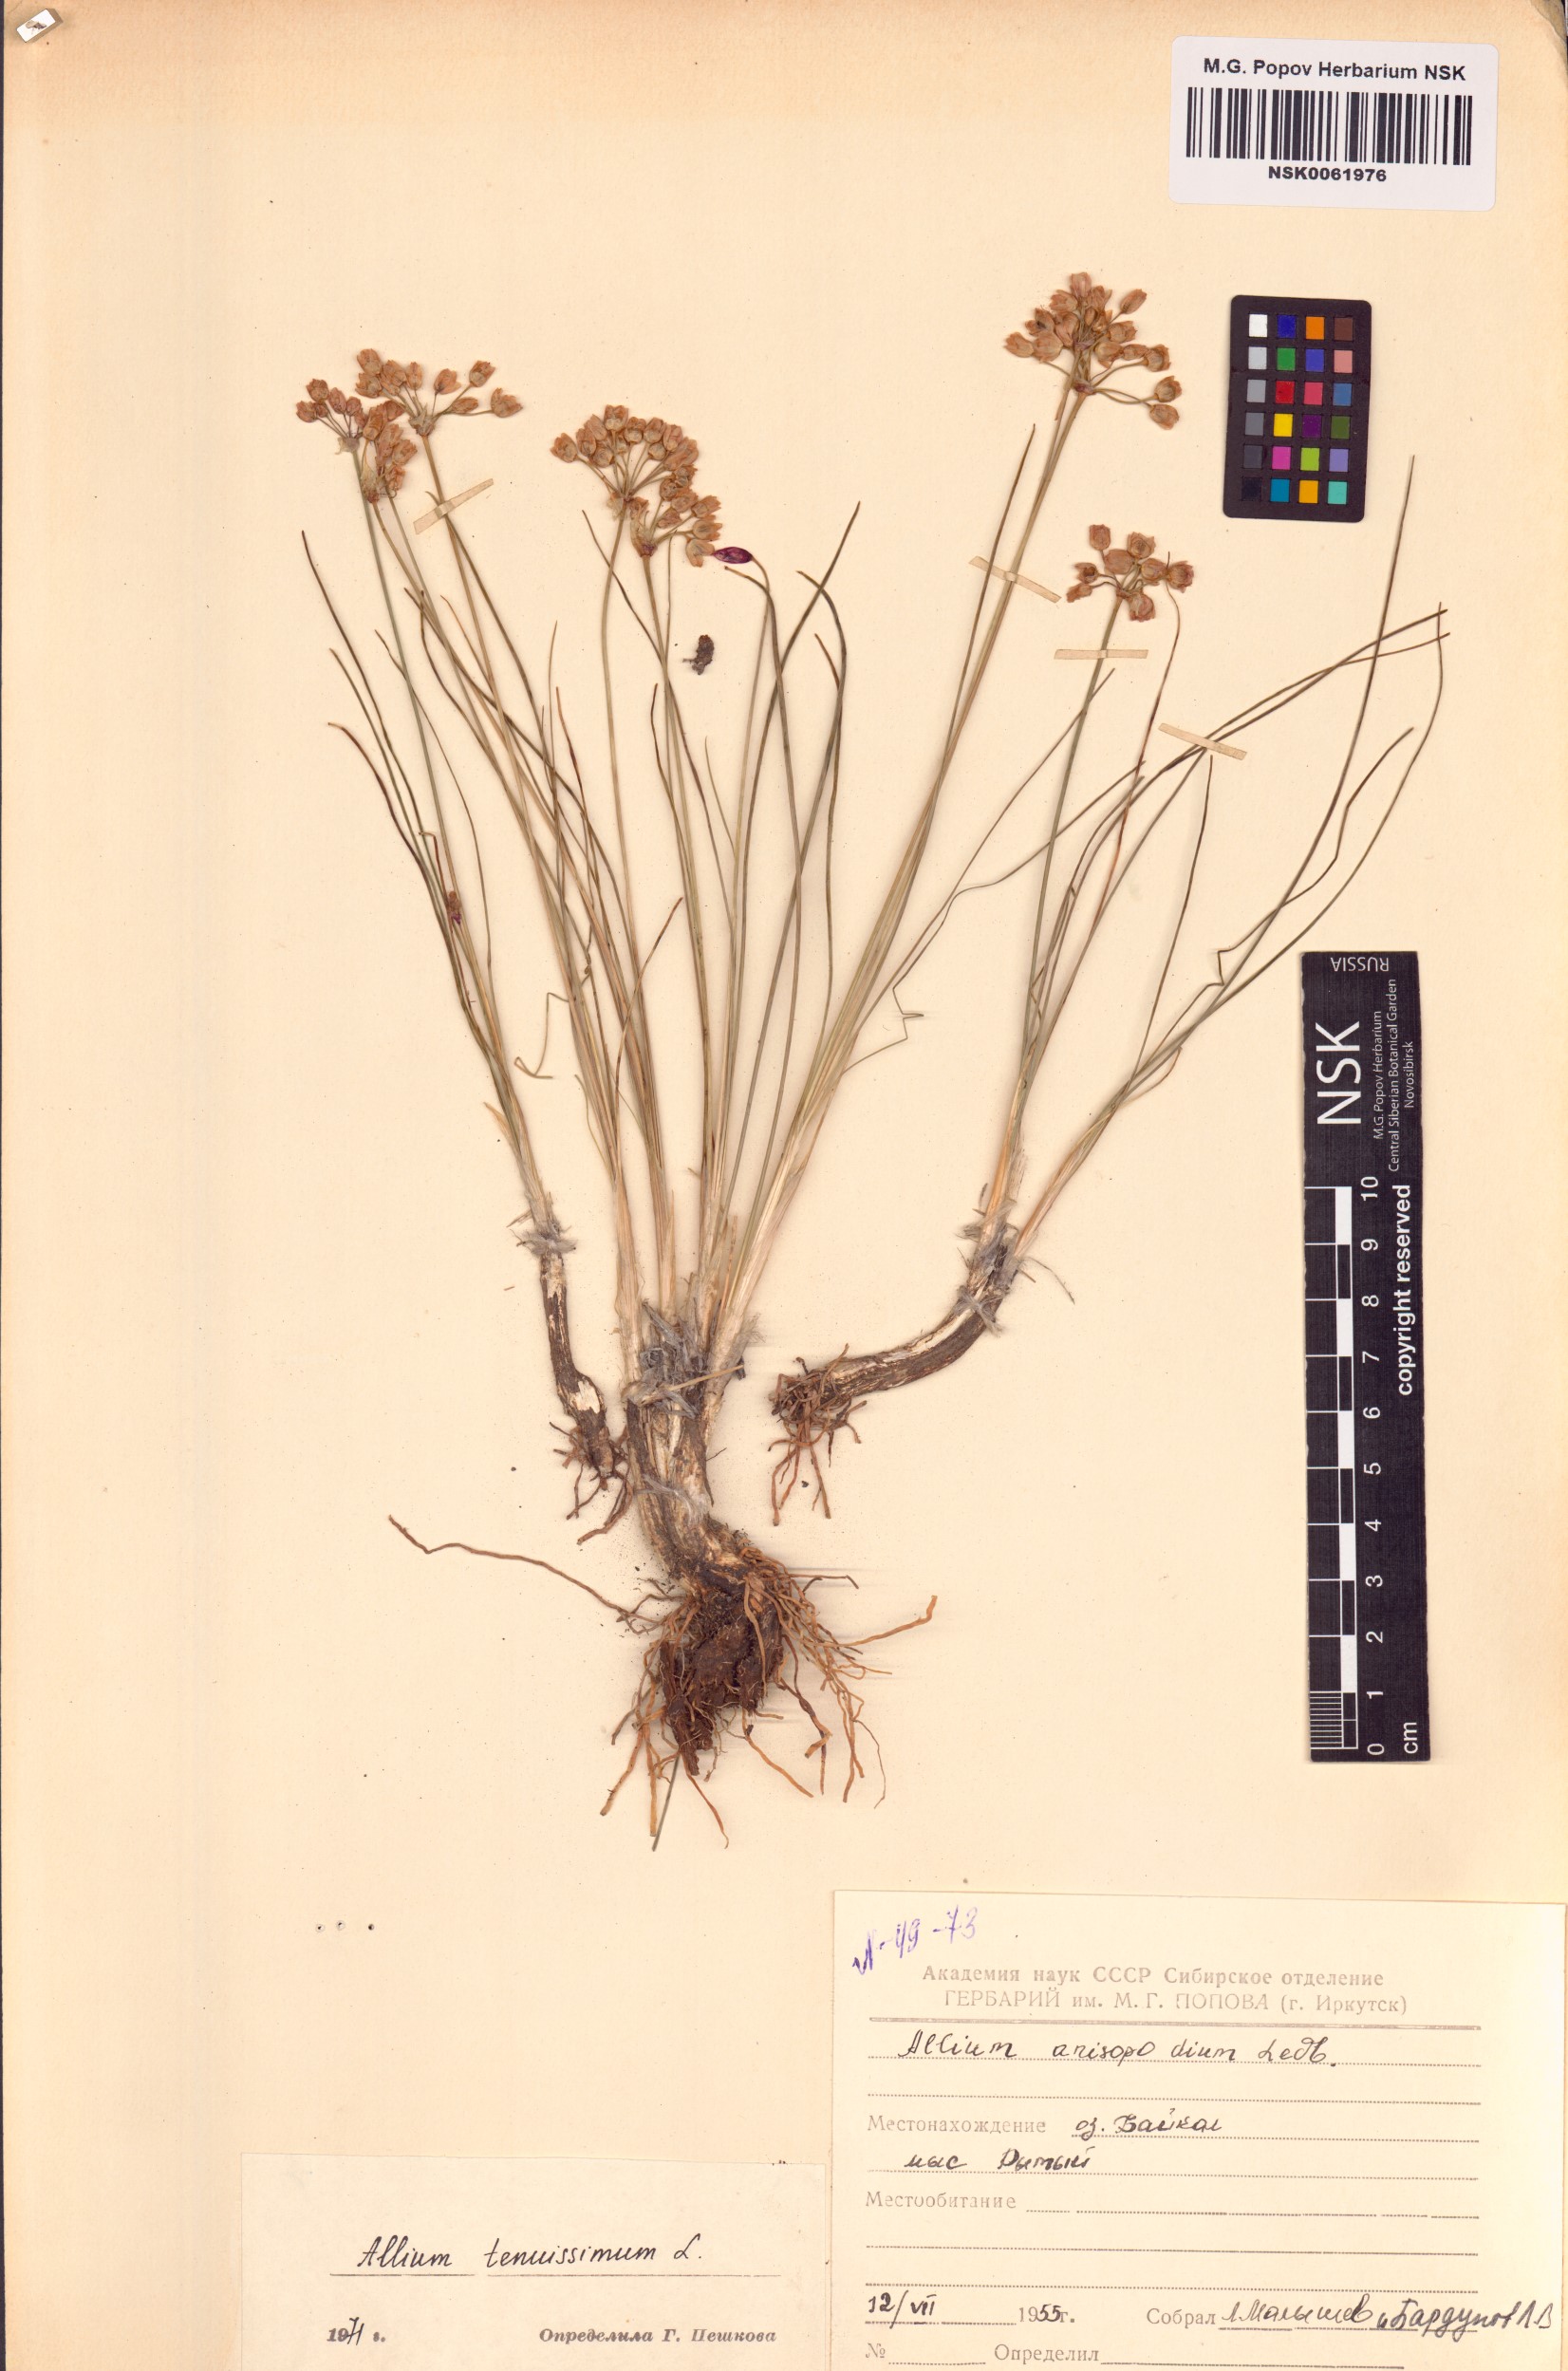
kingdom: Plantae
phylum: Tracheophyta
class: Liliopsida
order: Asparagales
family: Amaryllidaceae
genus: Allium
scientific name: Allium tenuissimum
